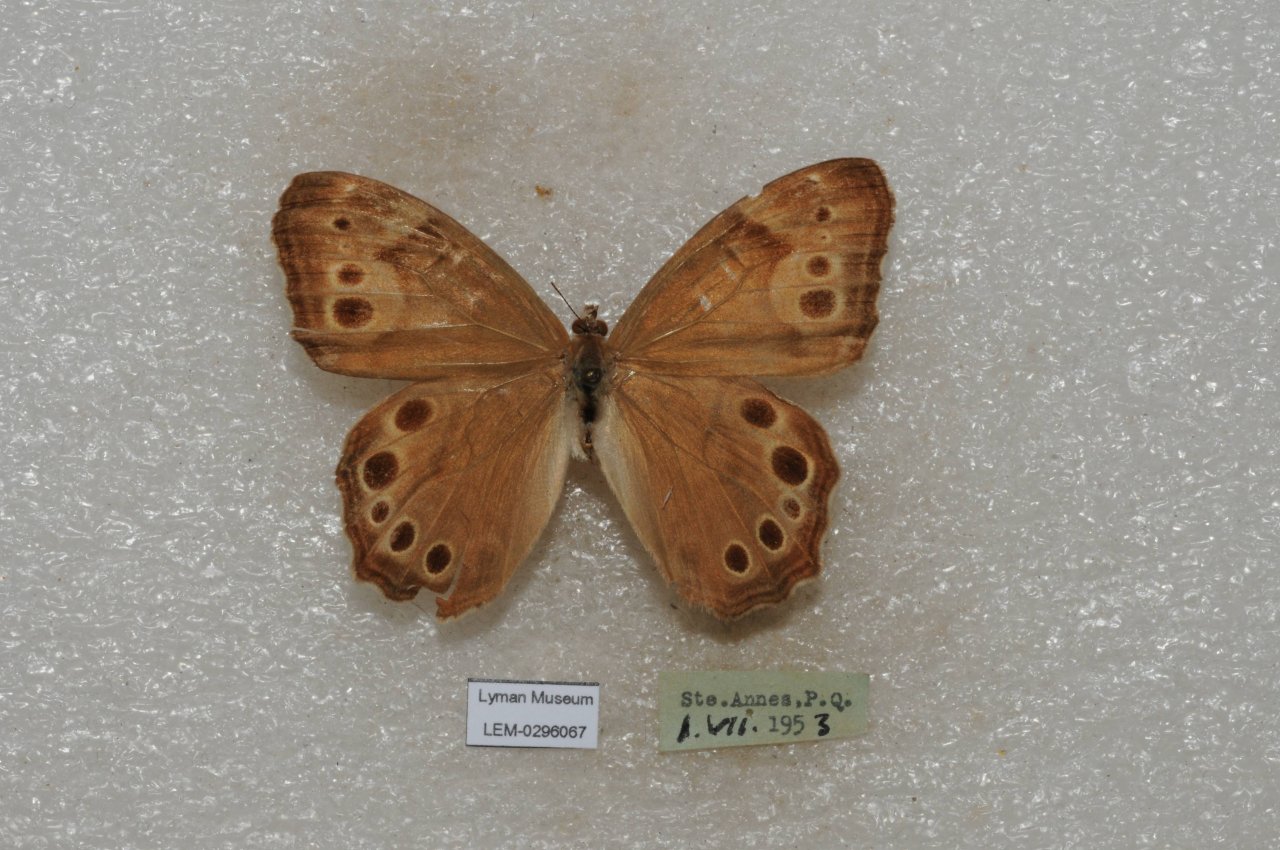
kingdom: Animalia
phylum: Arthropoda
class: Insecta
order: Lepidoptera
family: Nymphalidae
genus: Lethe
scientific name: Lethe anthedon
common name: Northern Pearly-Eye
